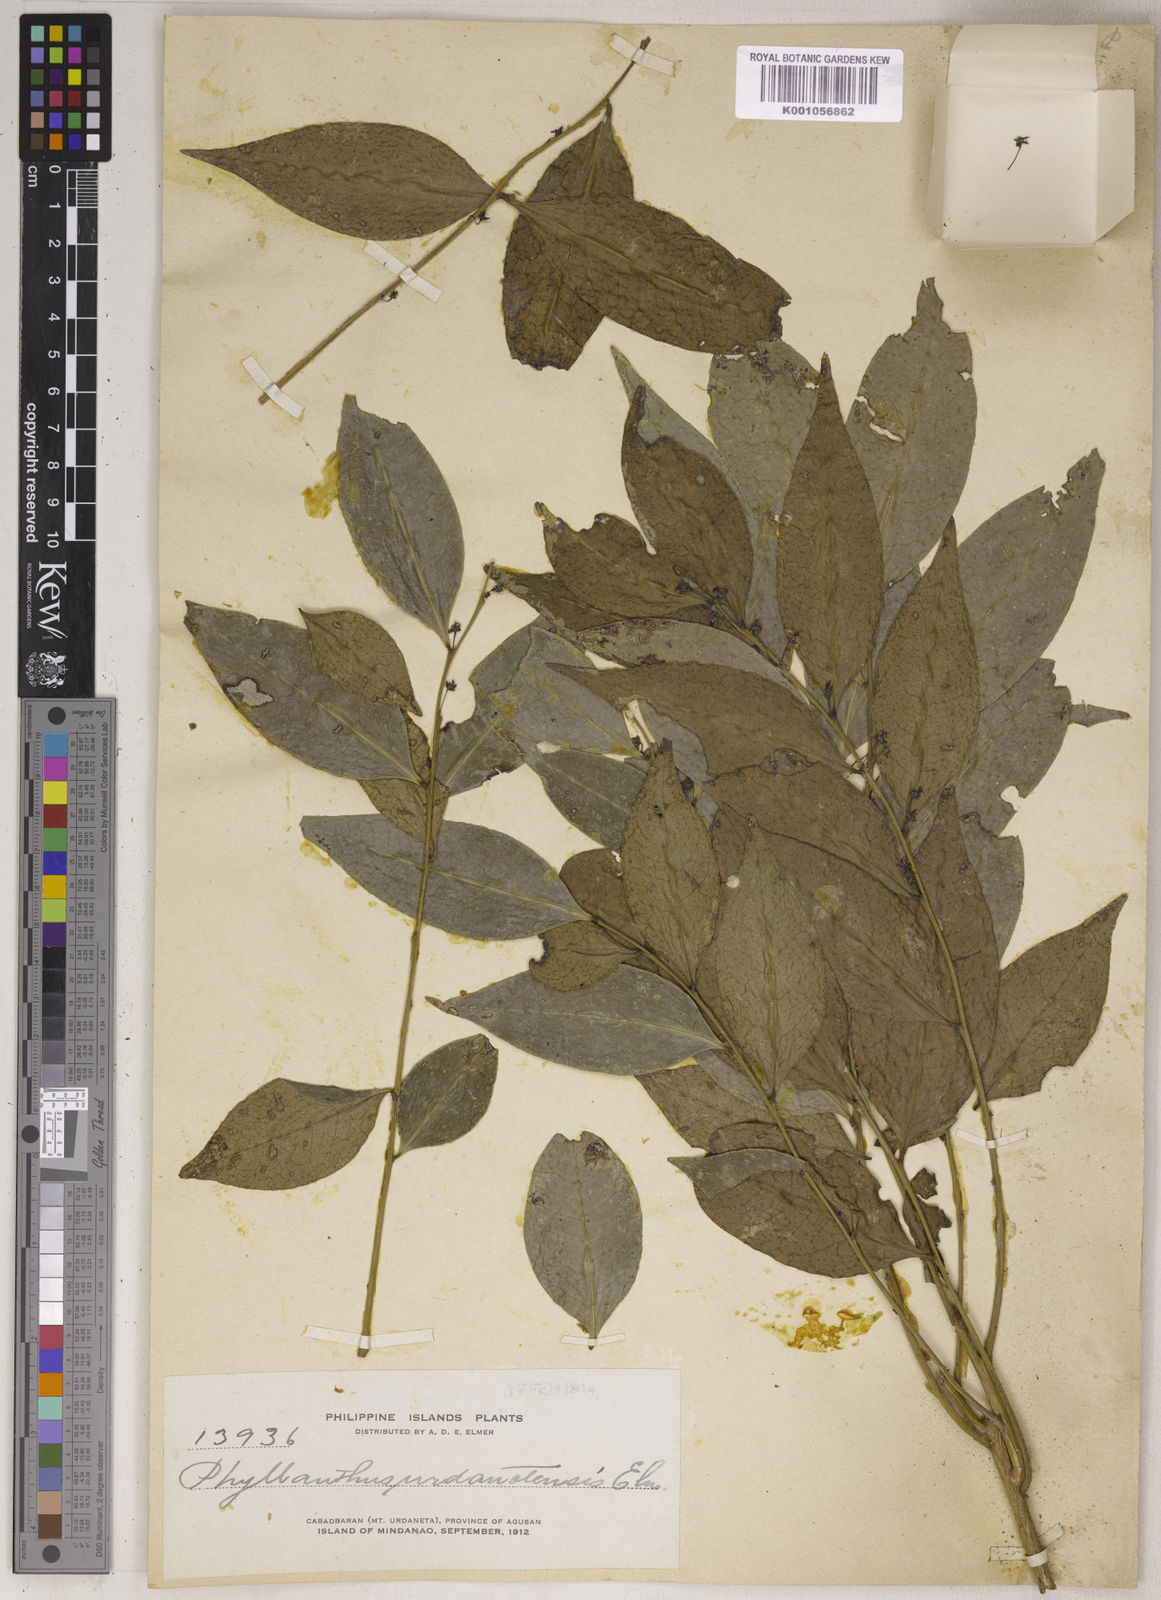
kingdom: Plantae
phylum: Tracheophyta
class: Magnoliopsida
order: Malpighiales
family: Phyllanthaceae
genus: Phyllanthus
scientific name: Phyllanthus securinegoides
